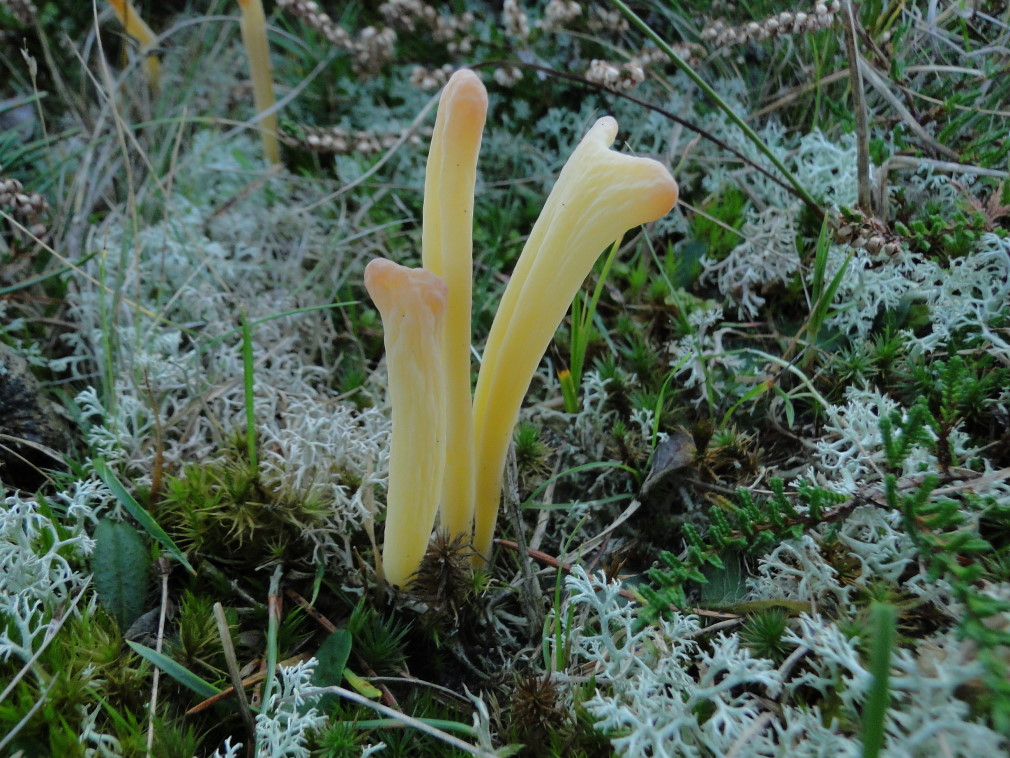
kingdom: Fungi
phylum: Basidiomycota
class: Agaricomycetes
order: Agaricales
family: Clavariaceae
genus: Clavaria
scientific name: Clavaria argillacea
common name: lerfarvet køllesvamp
